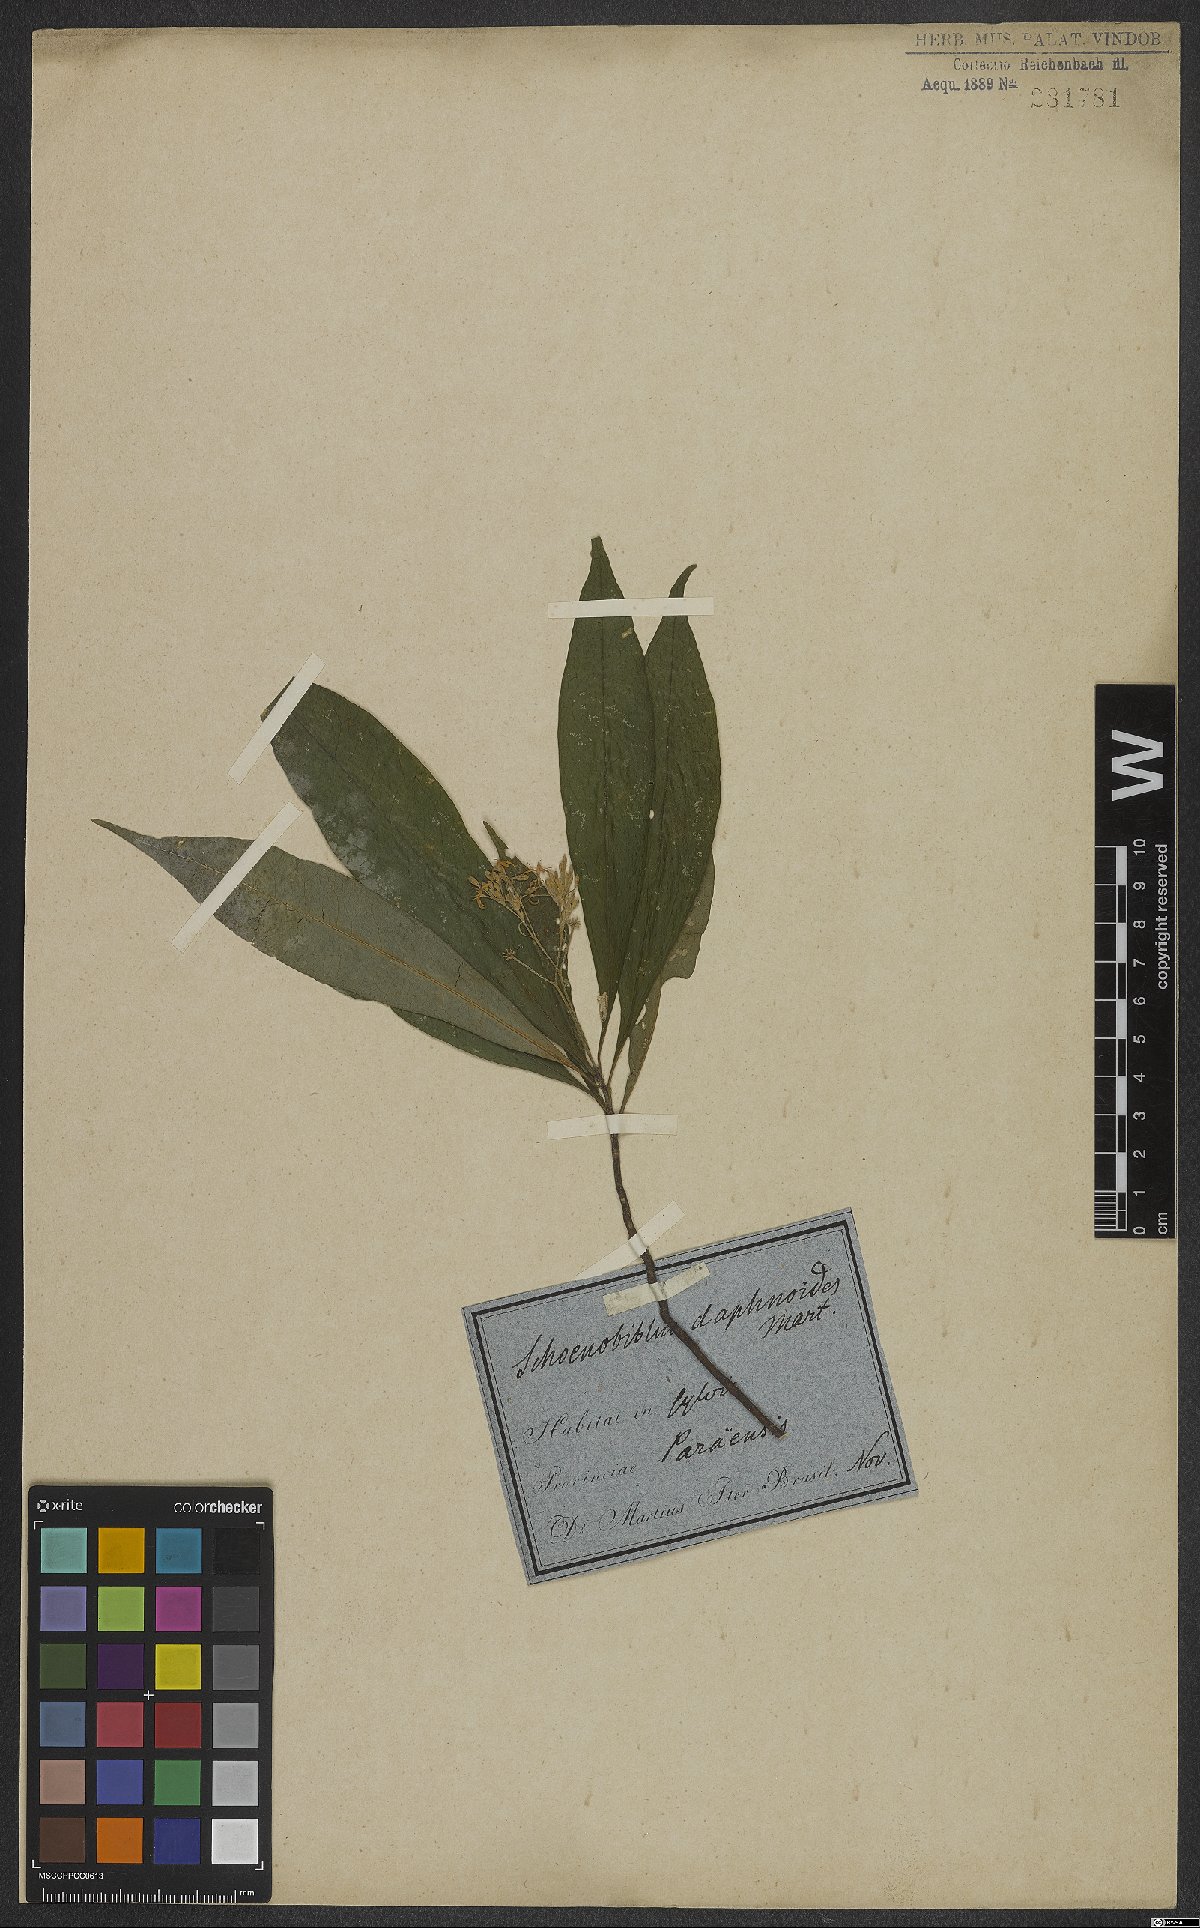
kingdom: Plantae
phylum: Tracheophyta
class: Magnoliopsida
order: Malvales
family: Thymelaeaceae
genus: Schoenobiblus
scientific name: Schoenobiblus daphnoides
